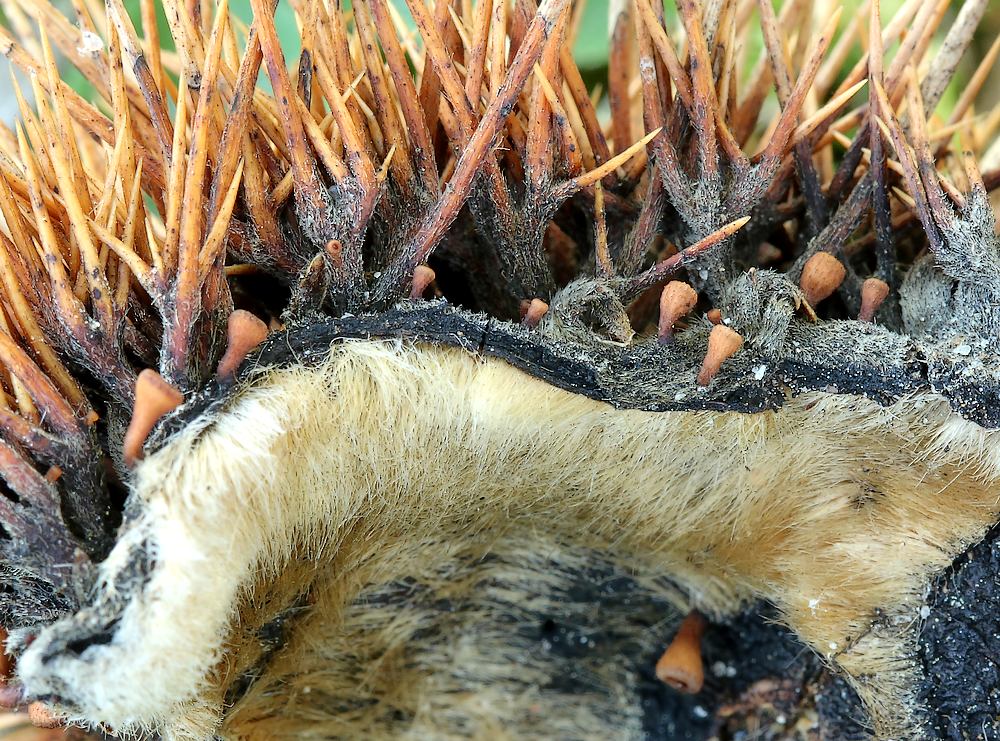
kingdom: Fungi
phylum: Ascomycota
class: Leotiomycetes
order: Helotiales
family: Rutstroemiaceae
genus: Lanzia
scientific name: Lanzia echinophila
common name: kastanie-brunskive
